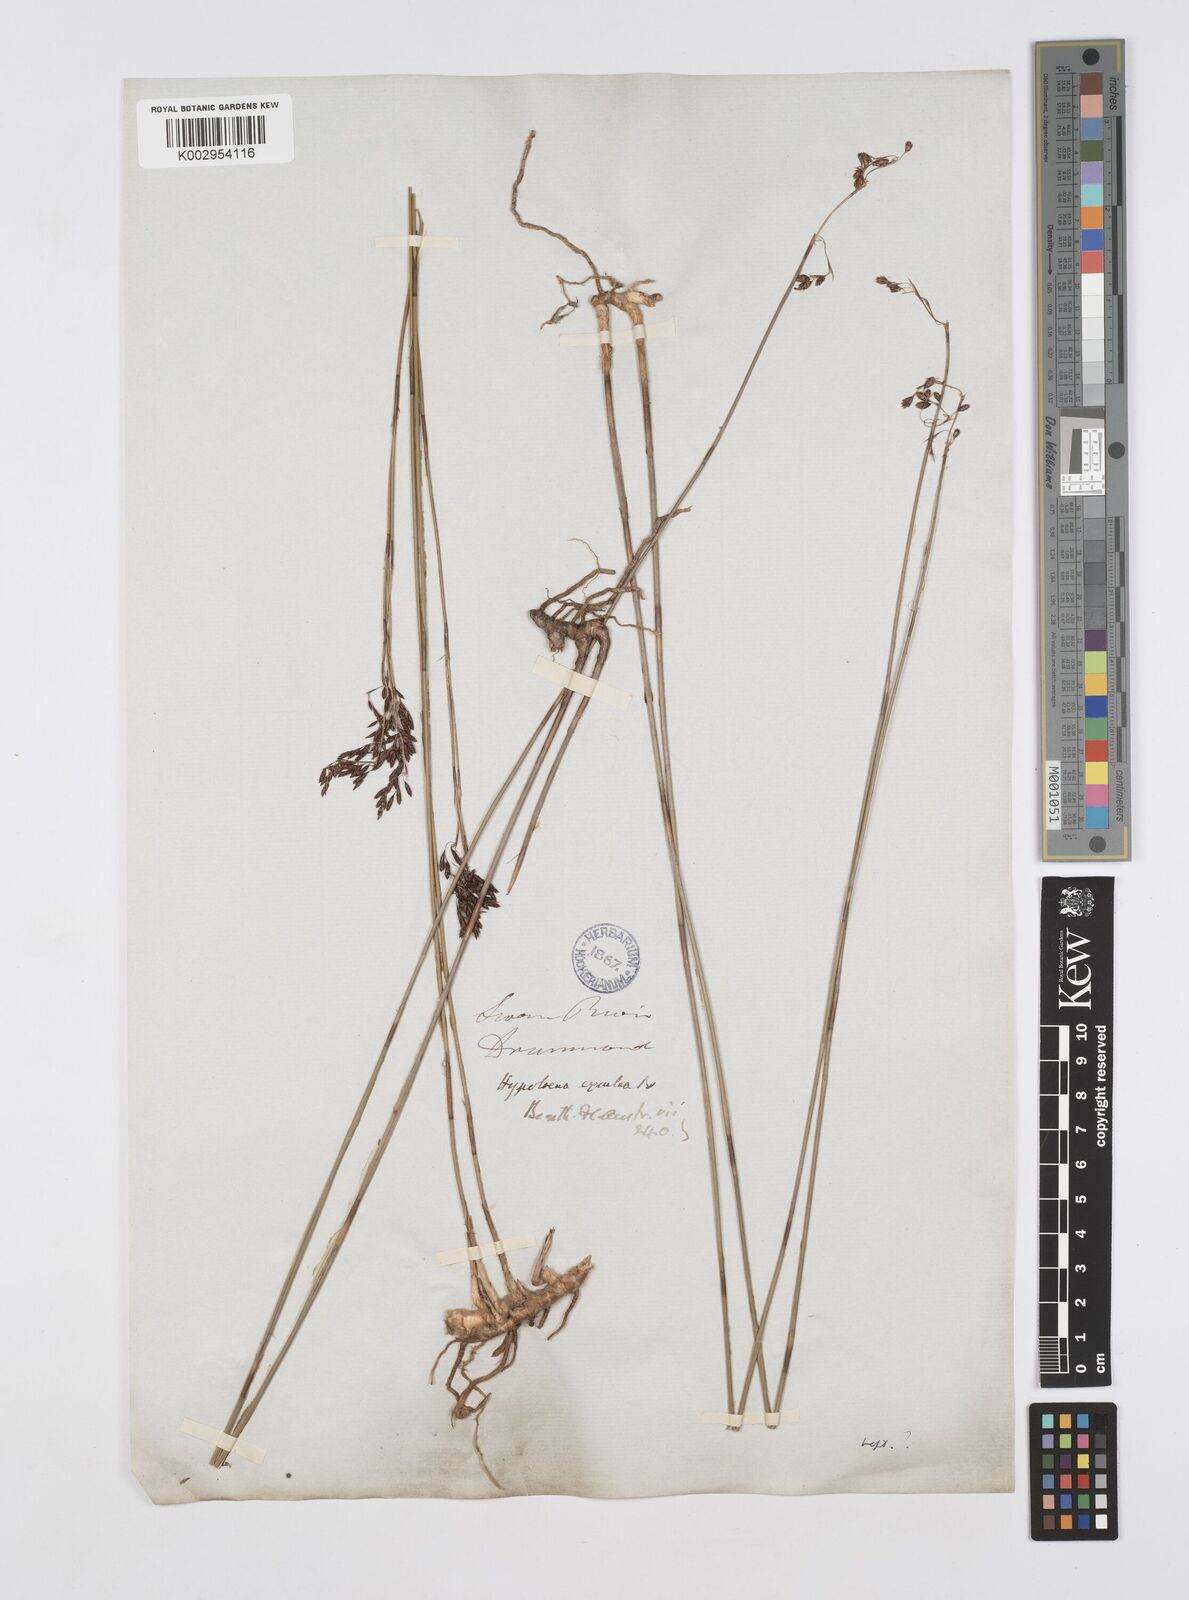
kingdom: Plantae
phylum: Tracheophyta
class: Liliopsida
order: Poales
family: Restionaceae
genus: Leptocarpus
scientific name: Leptocarpus tenax
